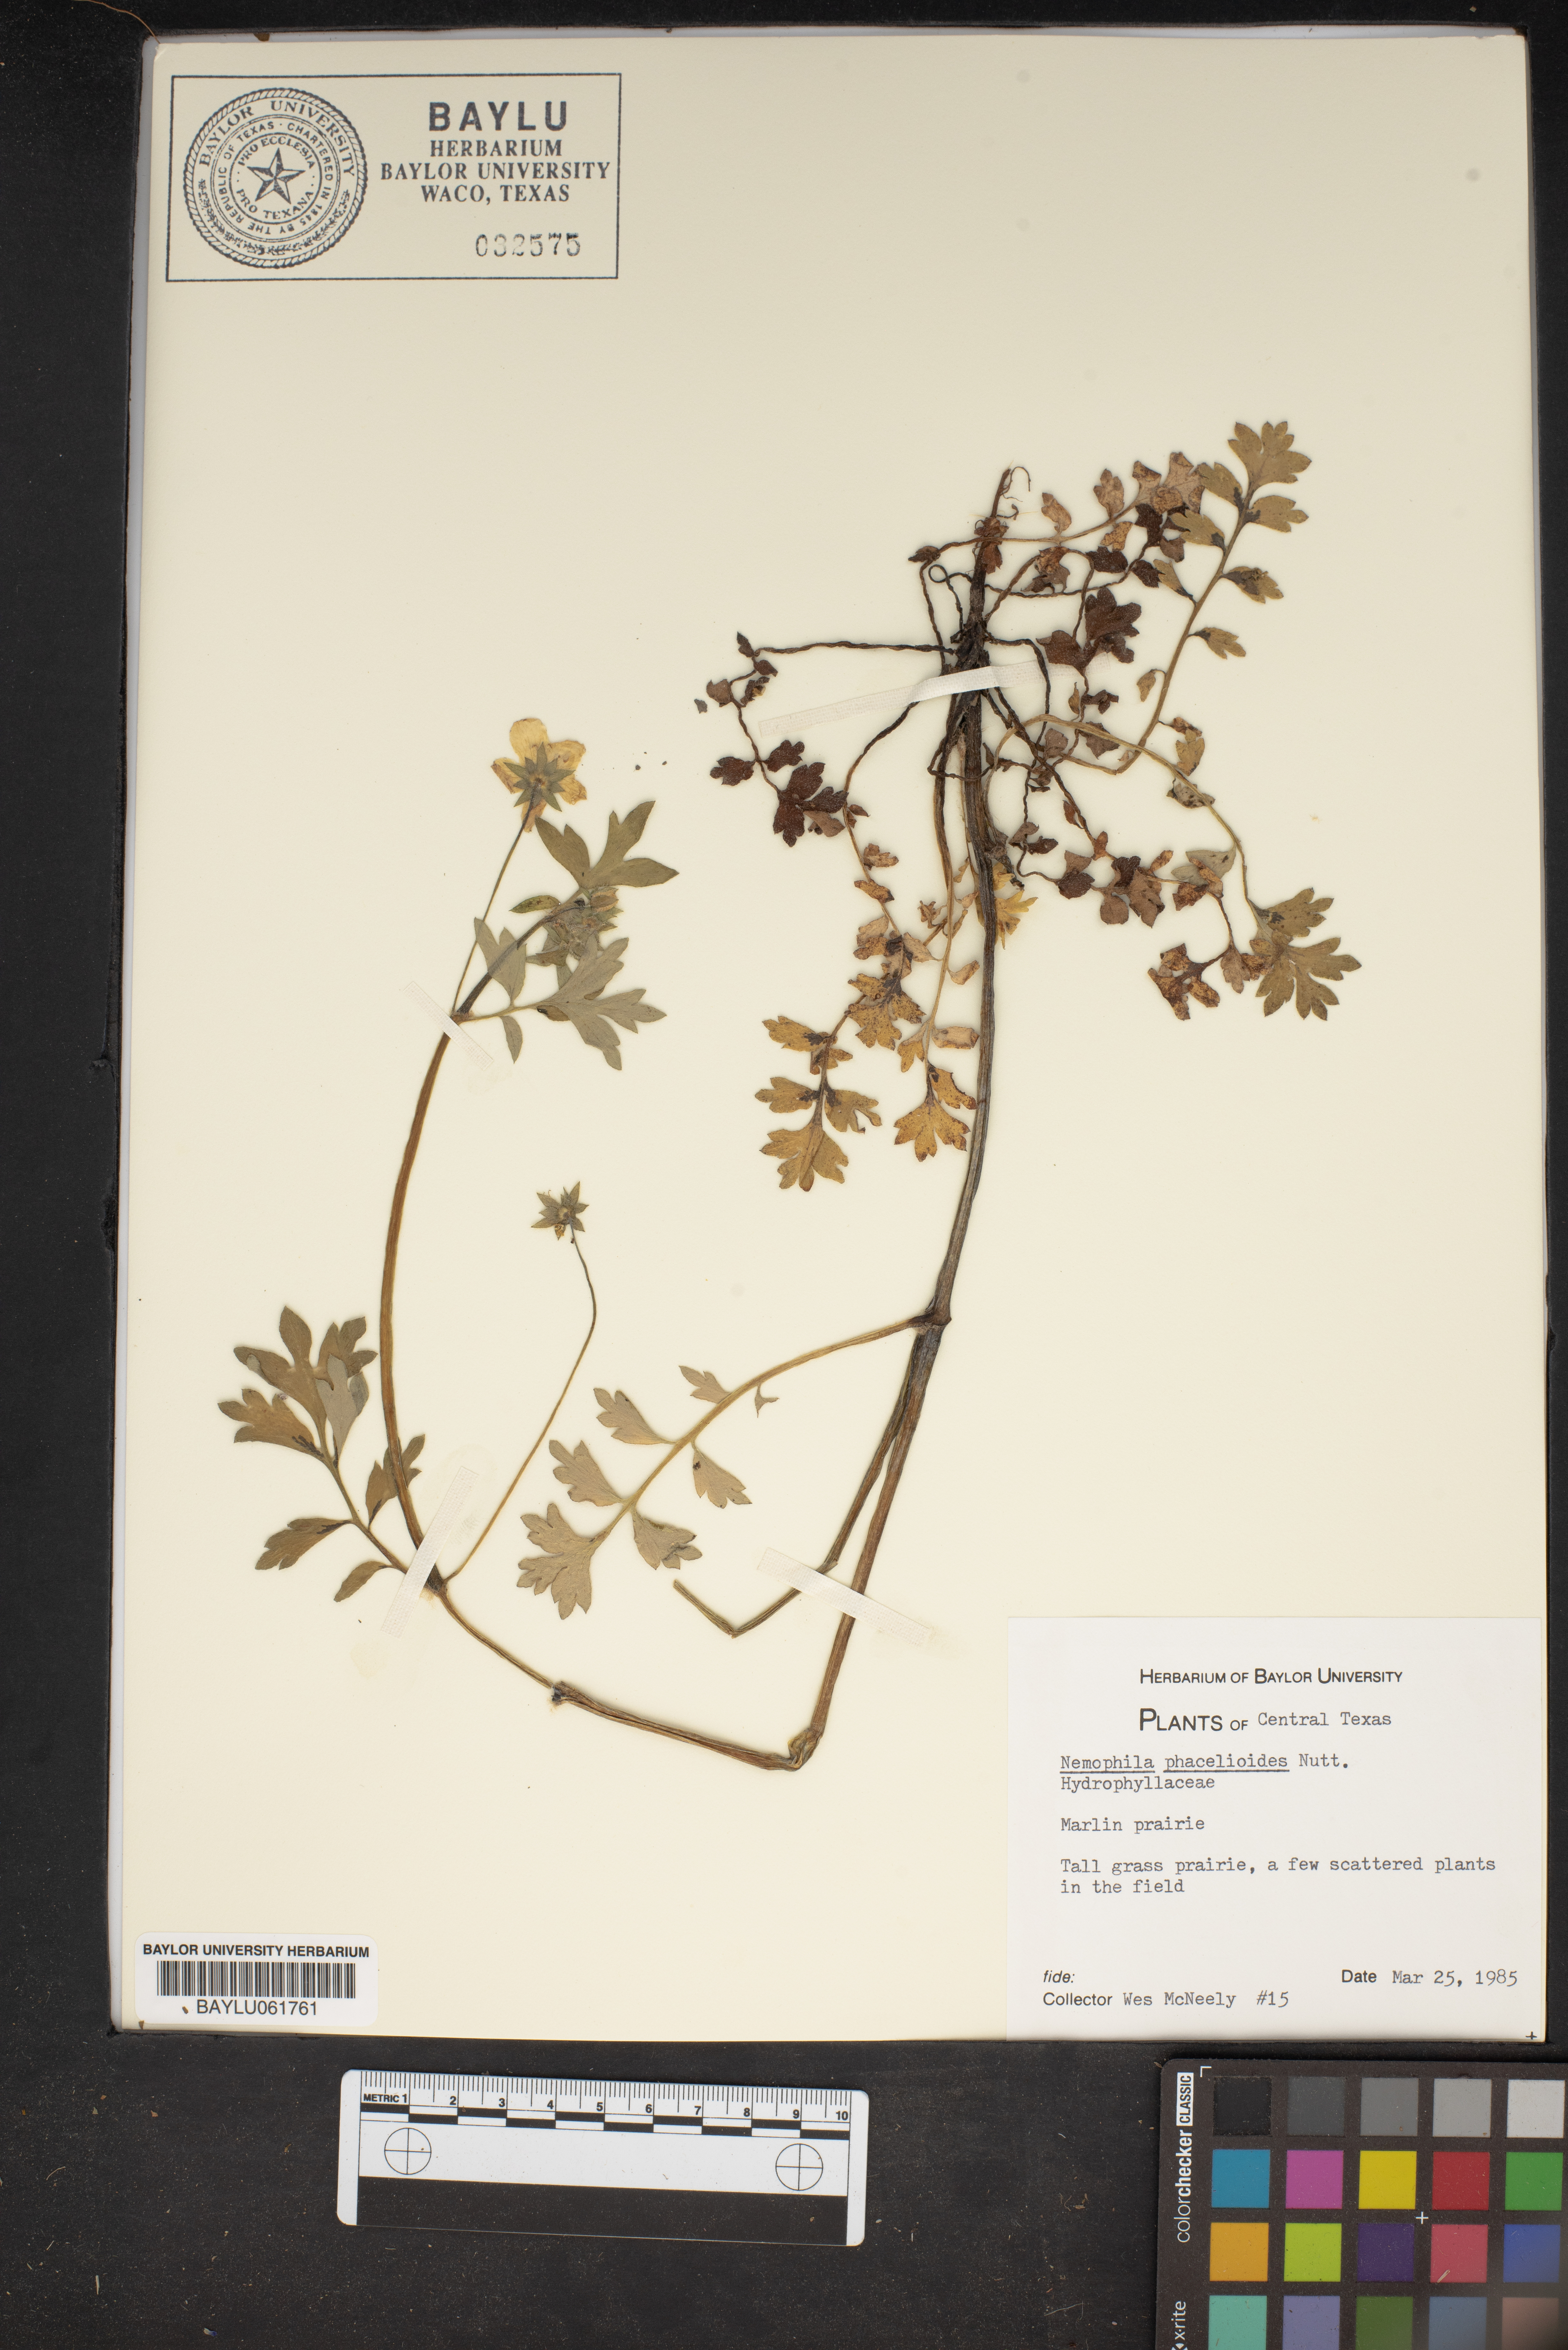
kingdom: Plantae
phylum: Tracheophyta
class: Magnoliopsida
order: Boraginales
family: Hydrophyllaceae
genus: Nemophila
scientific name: Nemophila phacelioides
